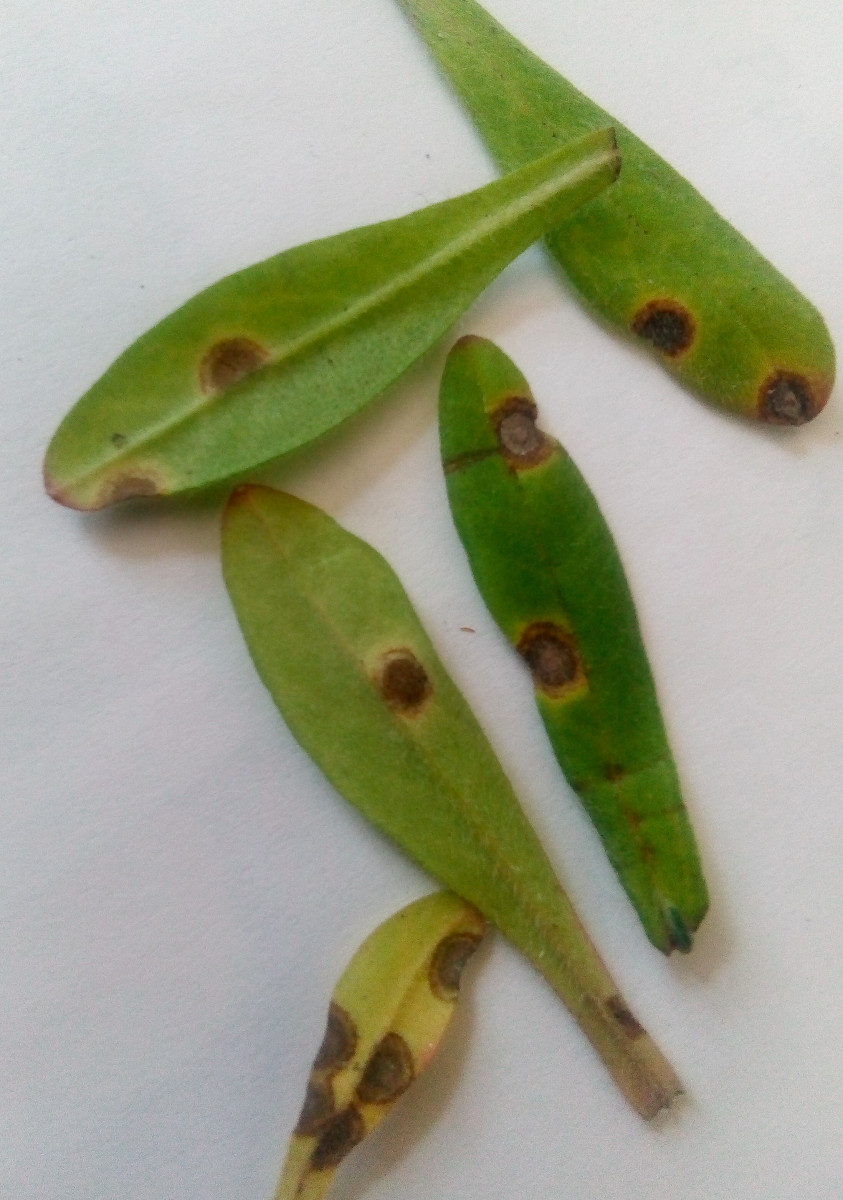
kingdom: Fungi
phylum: Basidiomycota
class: Exobasidiomycetes
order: Entylomatales
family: Entylomataceae
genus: Entyloma
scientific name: Entyloma fergussonii
